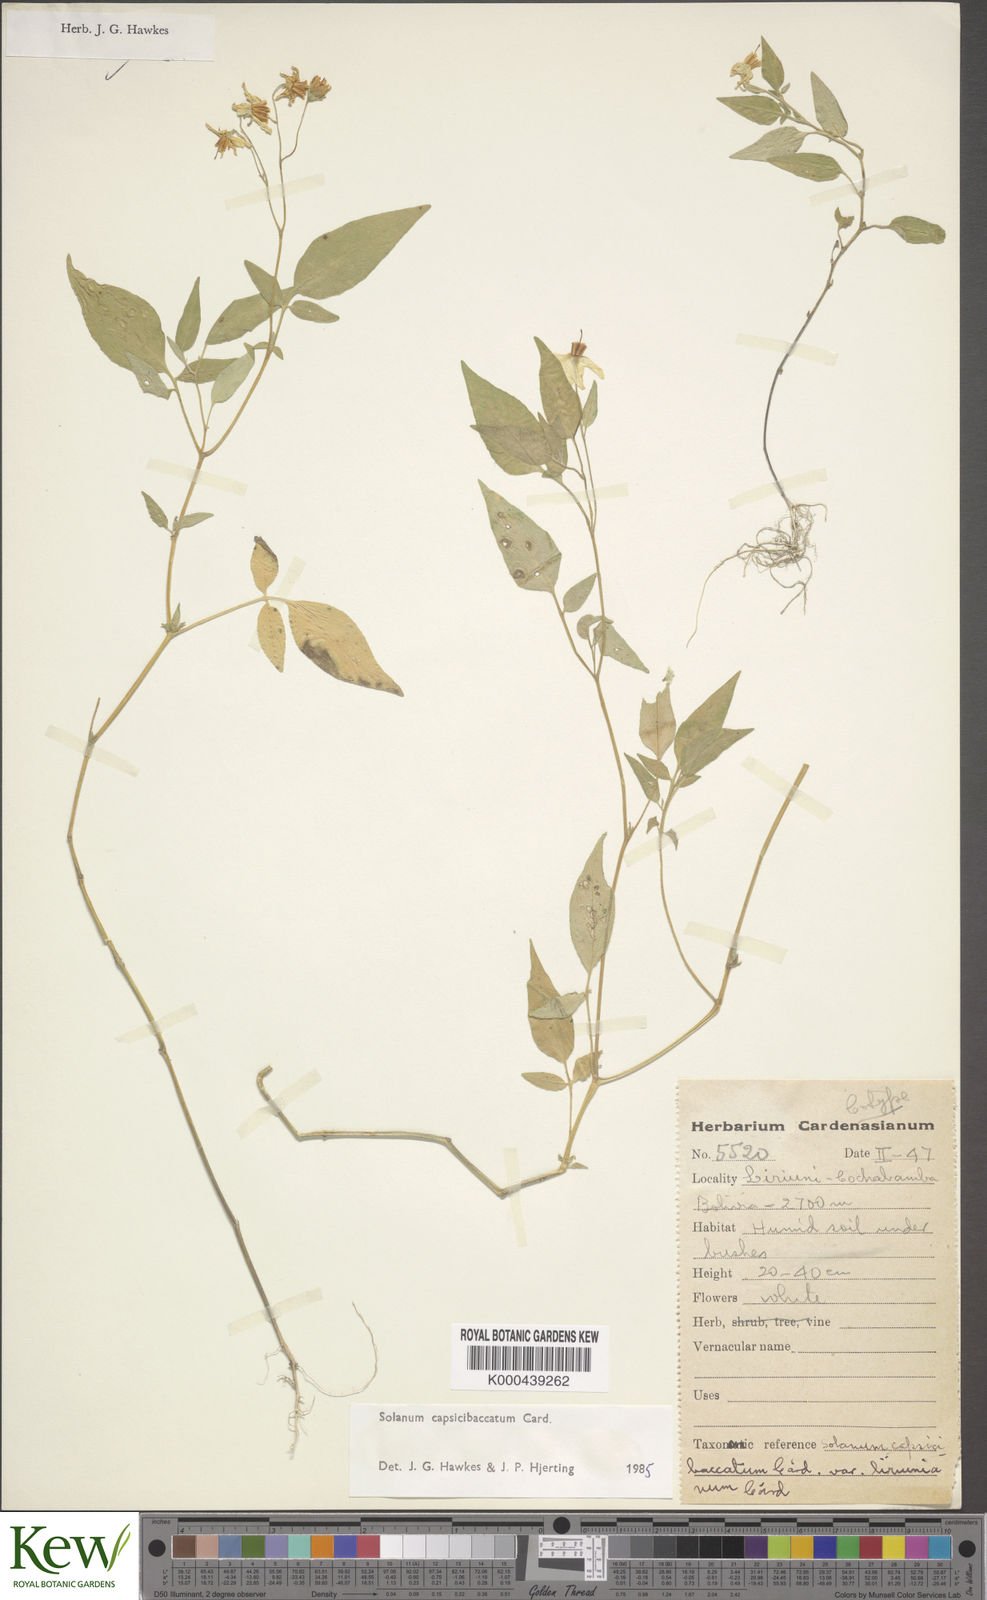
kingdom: Plantae
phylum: Tracheophyta
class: Magnoliopsida
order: Solanales
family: Solanaceae
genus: Solanum
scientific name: Solanum stipuloideum
